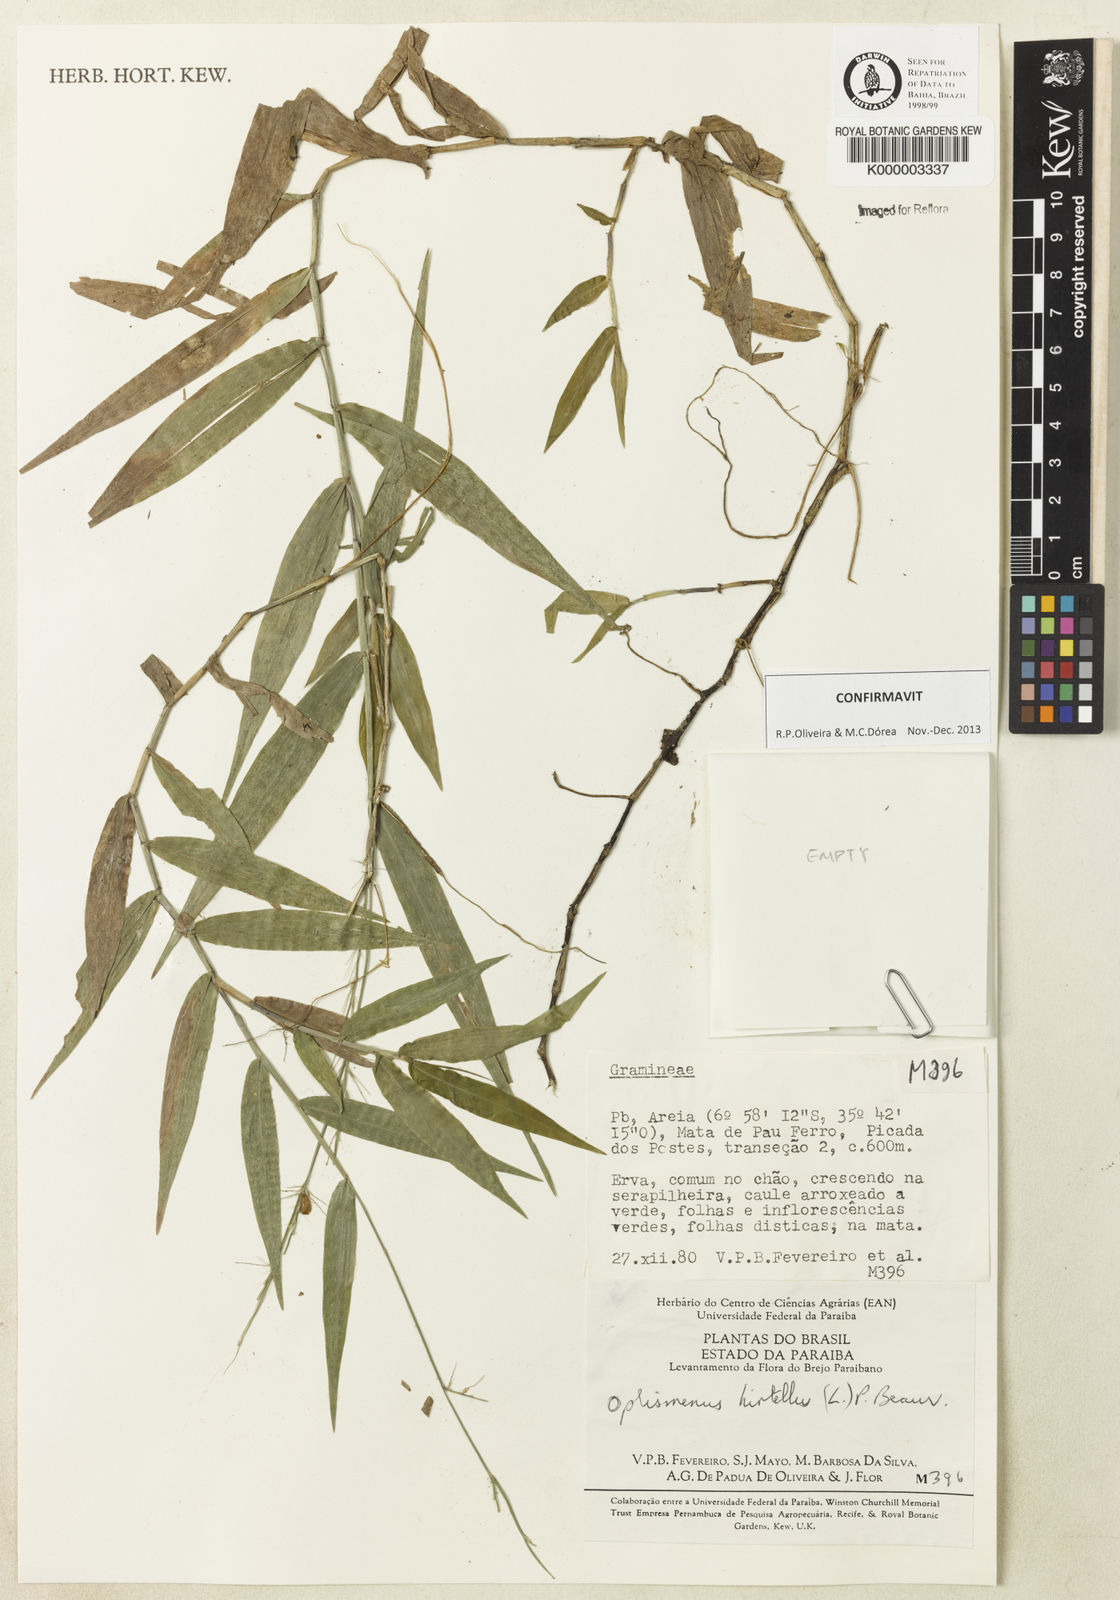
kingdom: Plantae
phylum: Tracheophyta
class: Liliopsida
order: Poales
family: Poaceae
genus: Oplismenus
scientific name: Oplismenus hirtellus
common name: Basketgrass
